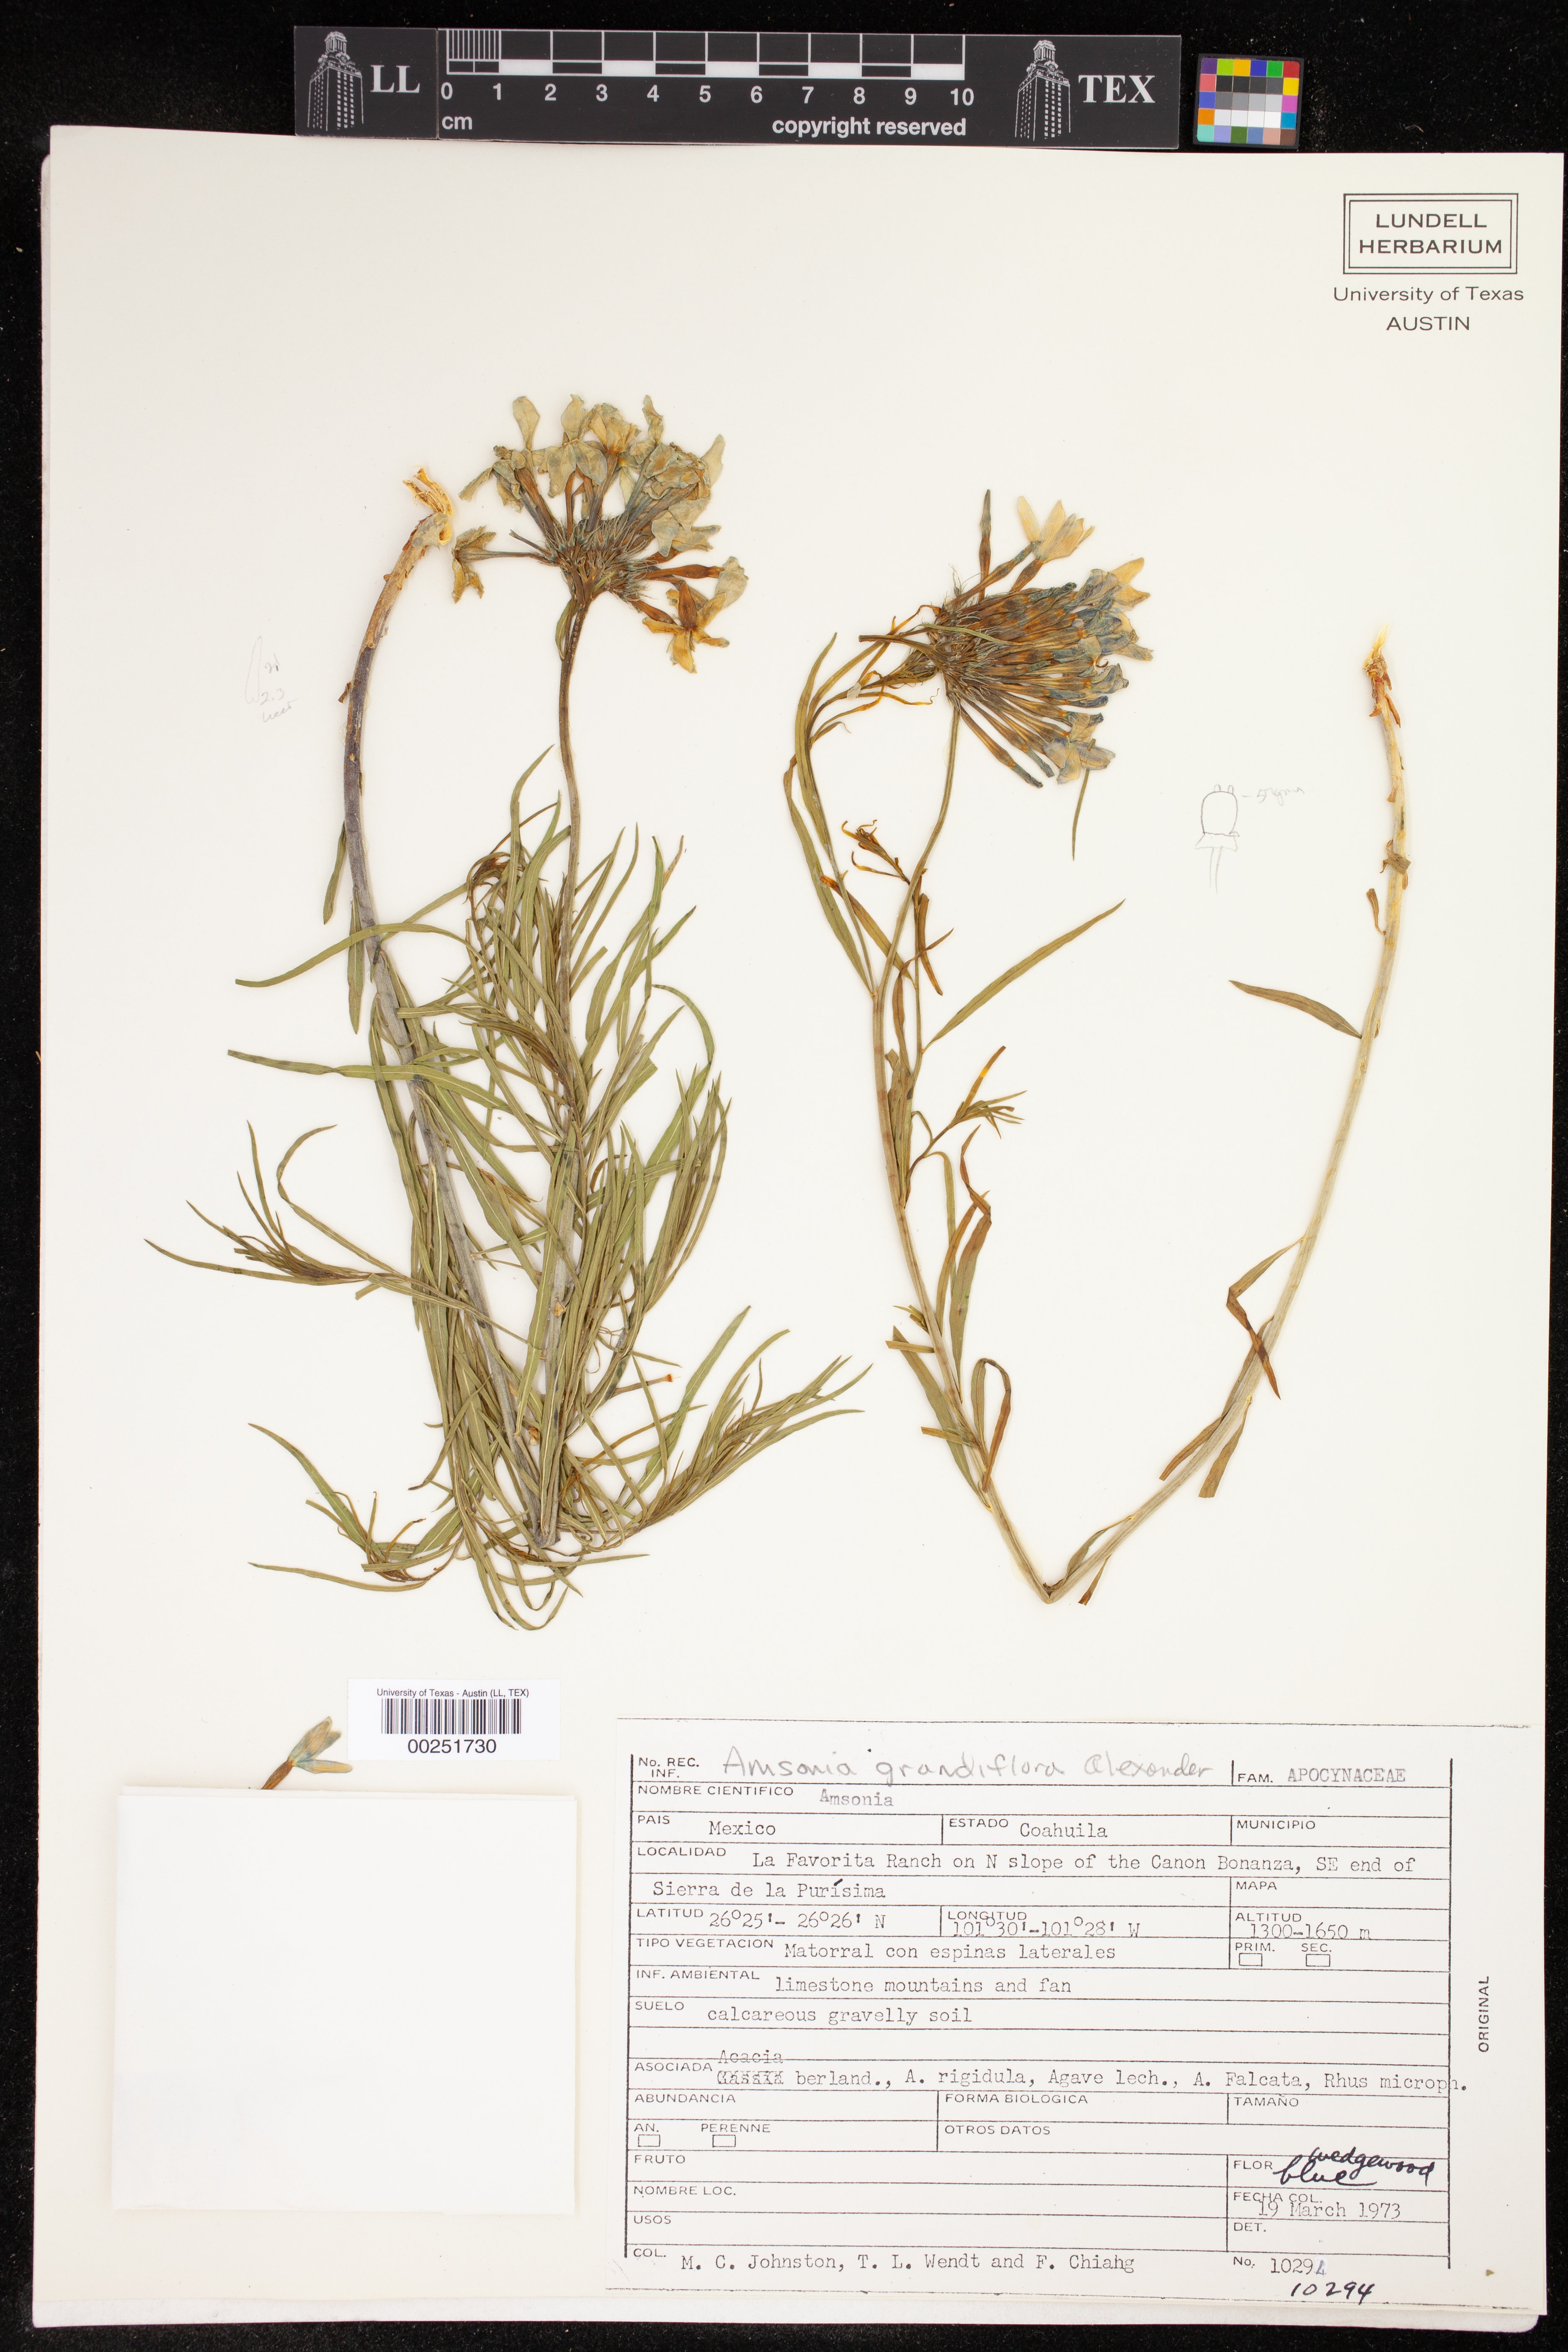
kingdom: Plantae
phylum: Tracheophyta
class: Magnoliopsida
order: Gentianales
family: Apocynaceae
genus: Amsonia
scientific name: Amsonia grandiflora
